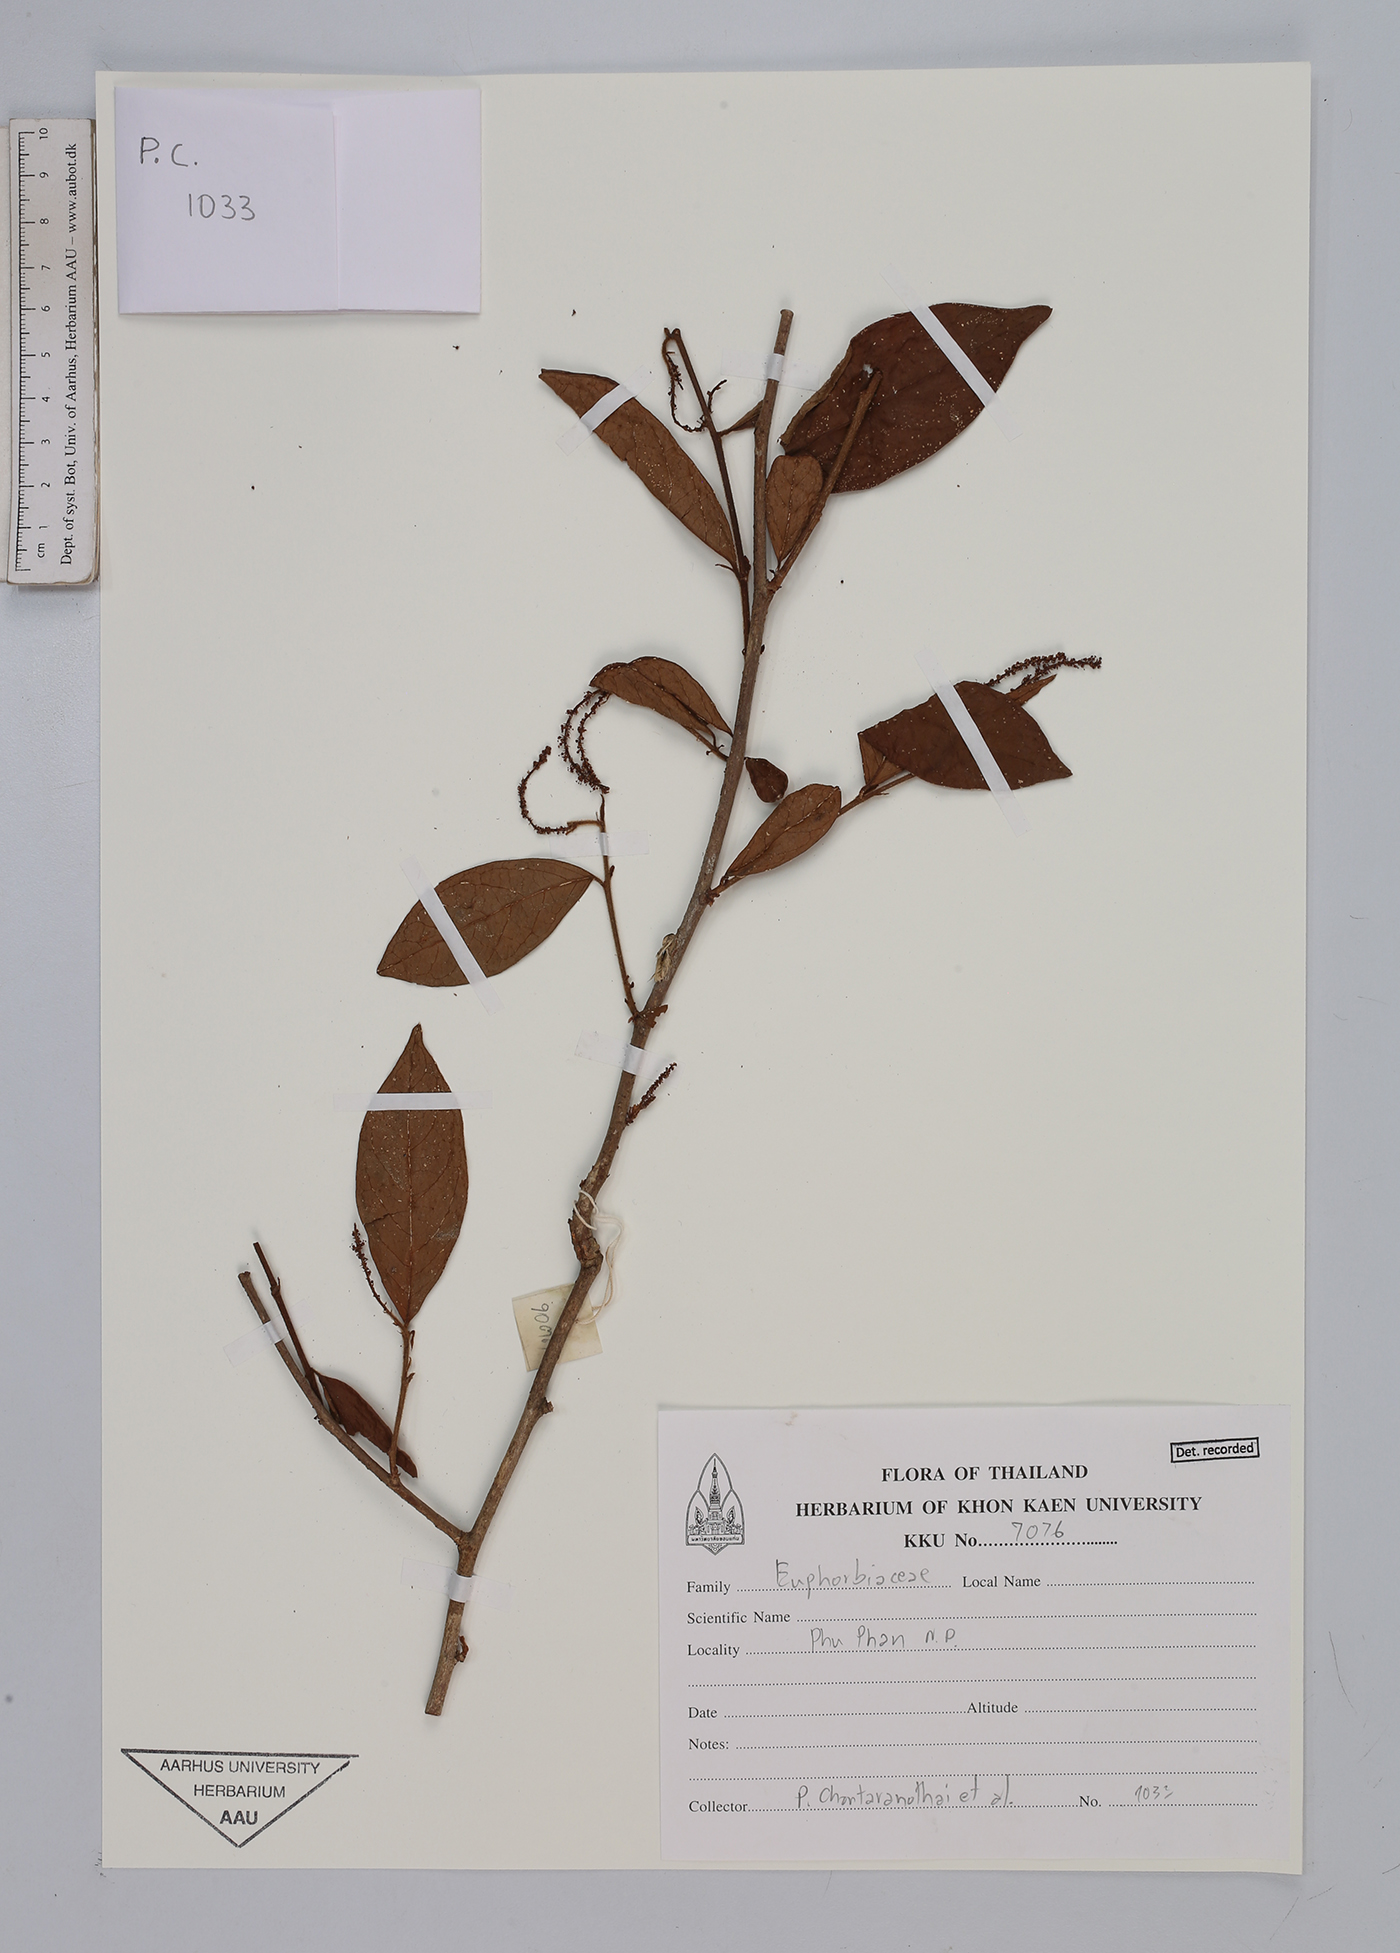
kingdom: Plantae
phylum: Tracheophyta
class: Magnoliopsida
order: Malpighiales
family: Euphorbiaceae
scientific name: Euphorbiaceae
